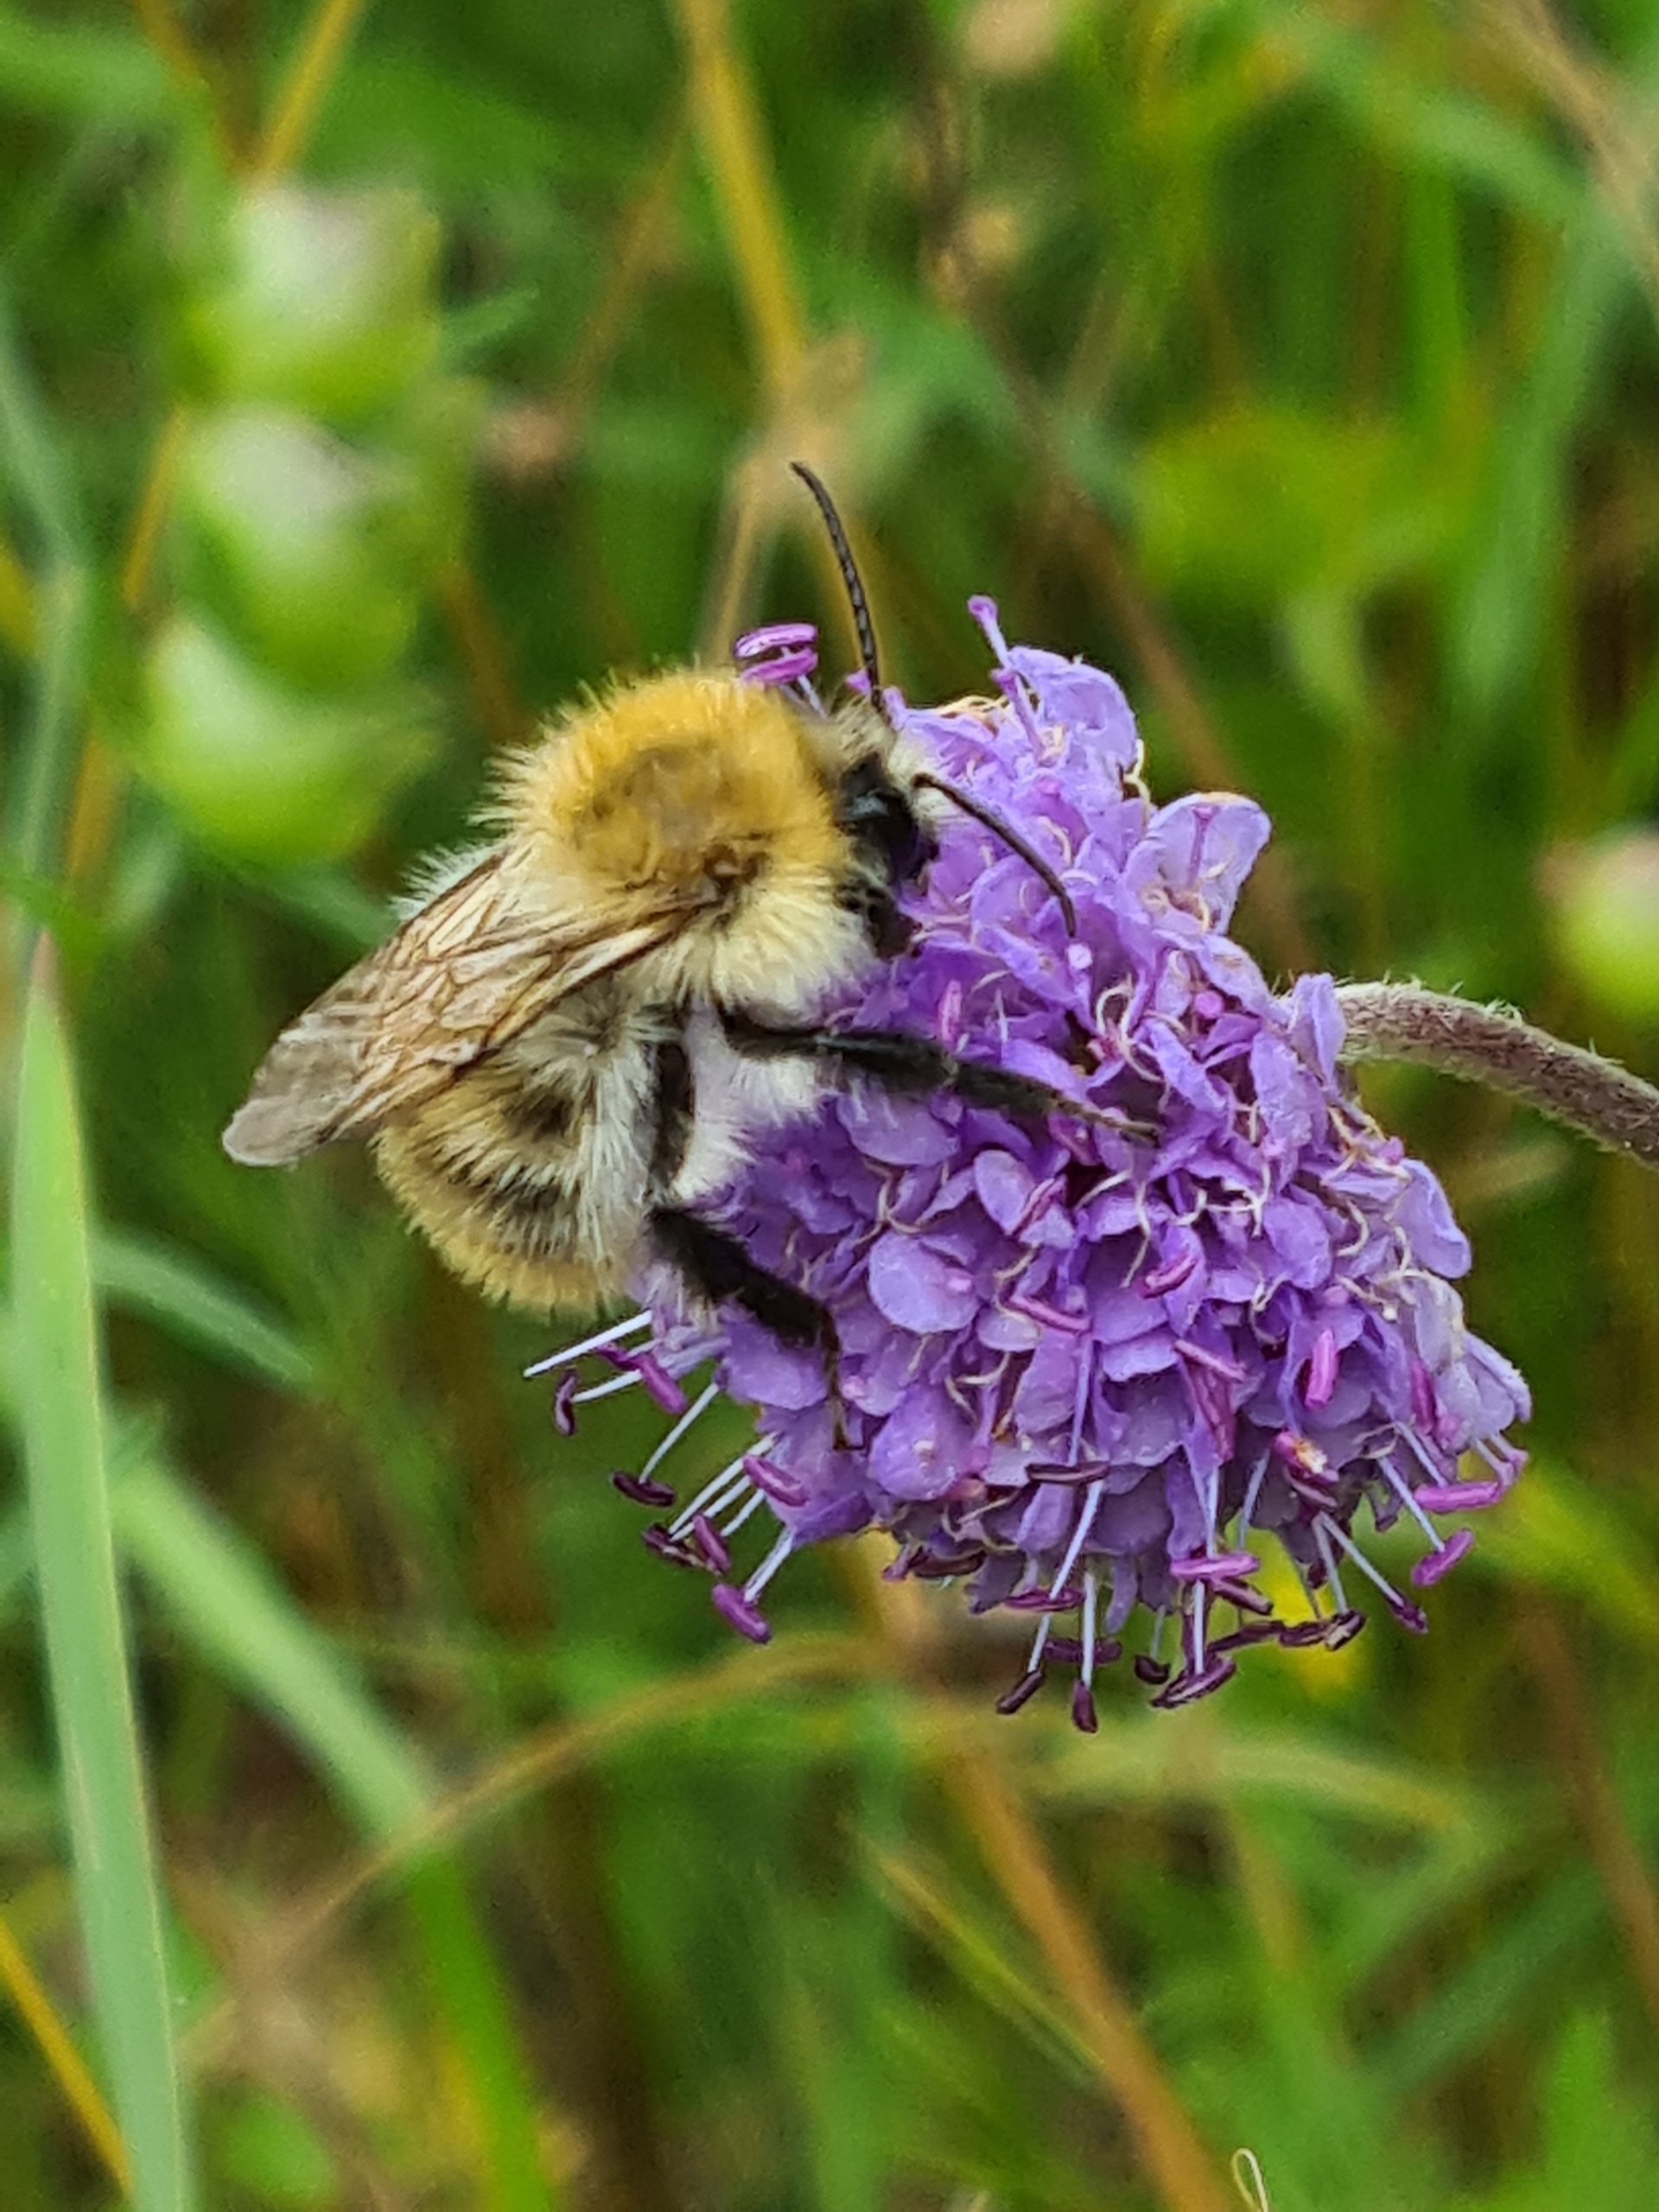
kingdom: Animalia
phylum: Arthropoda
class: Insecta
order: Hymenoptera
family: Apidae
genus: Bombus
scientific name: Bombus pascuorum
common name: Agerhumle
